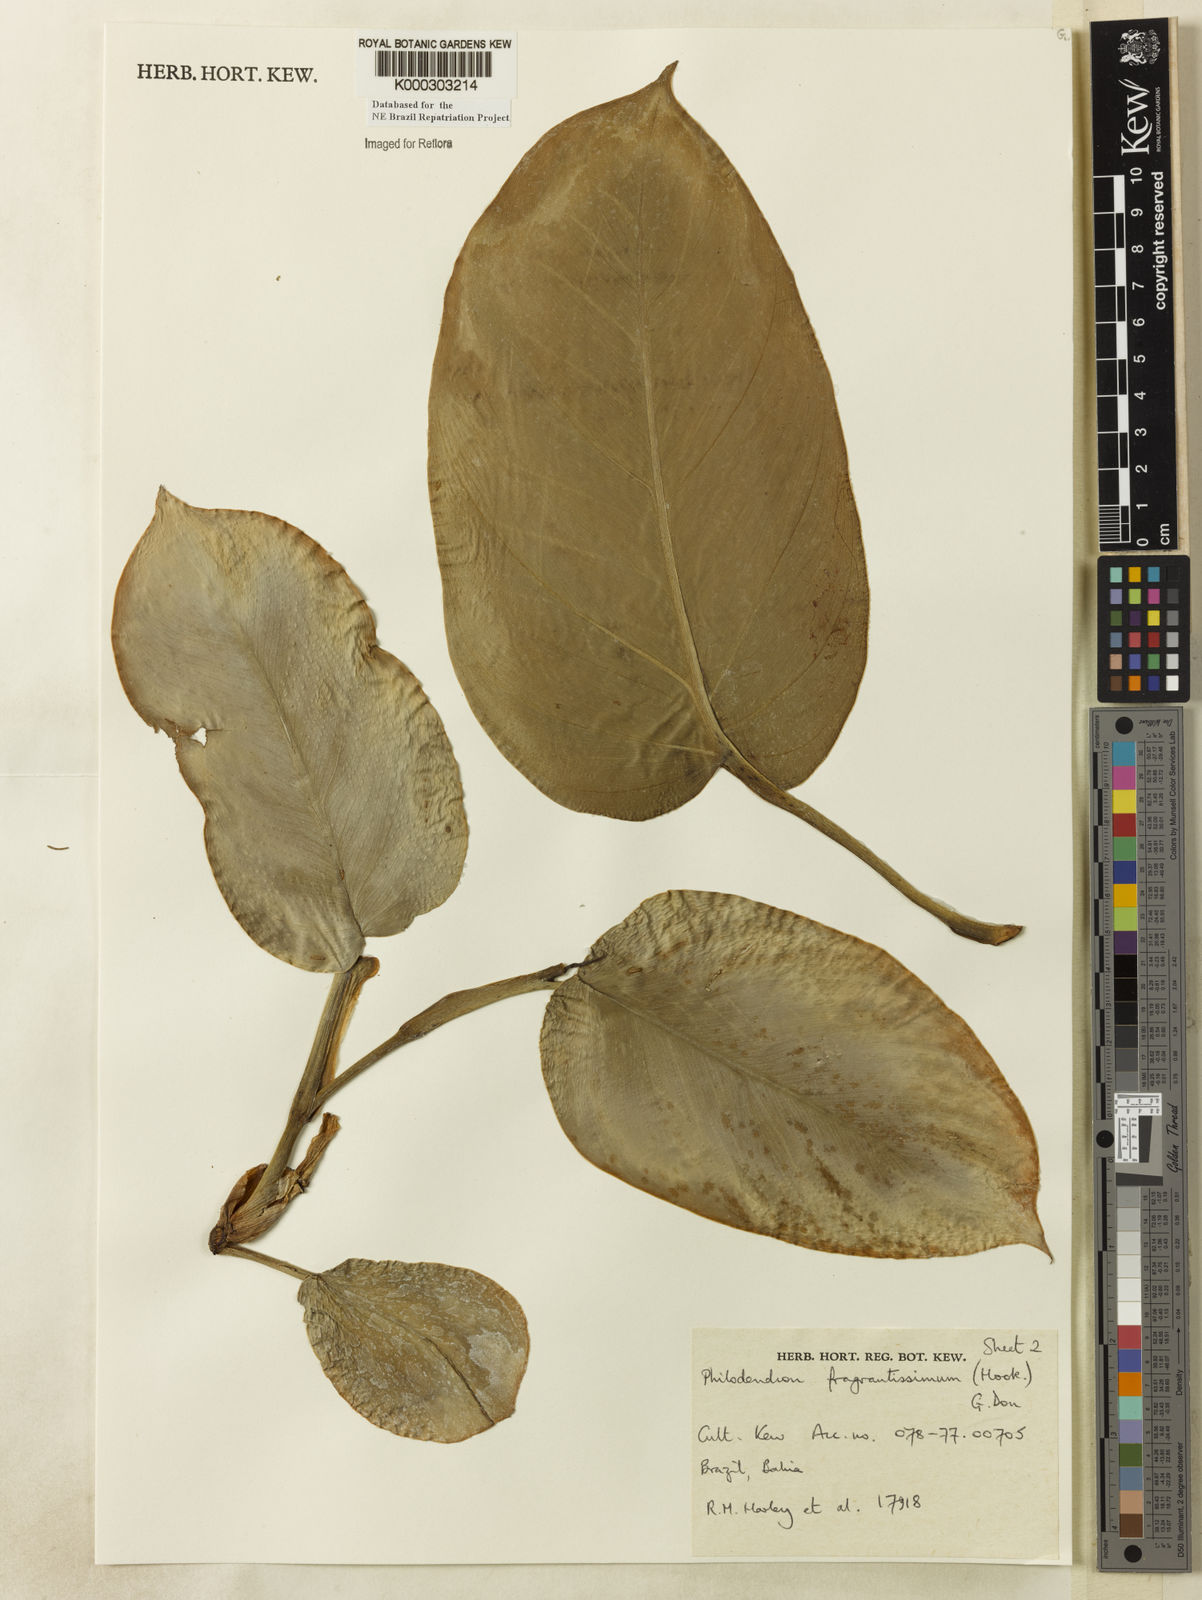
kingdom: Plantae
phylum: Tracheophyta
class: Liliopsida
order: Alismatales
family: Araceae
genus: Philodendron
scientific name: Philodendron fragrantissimum
